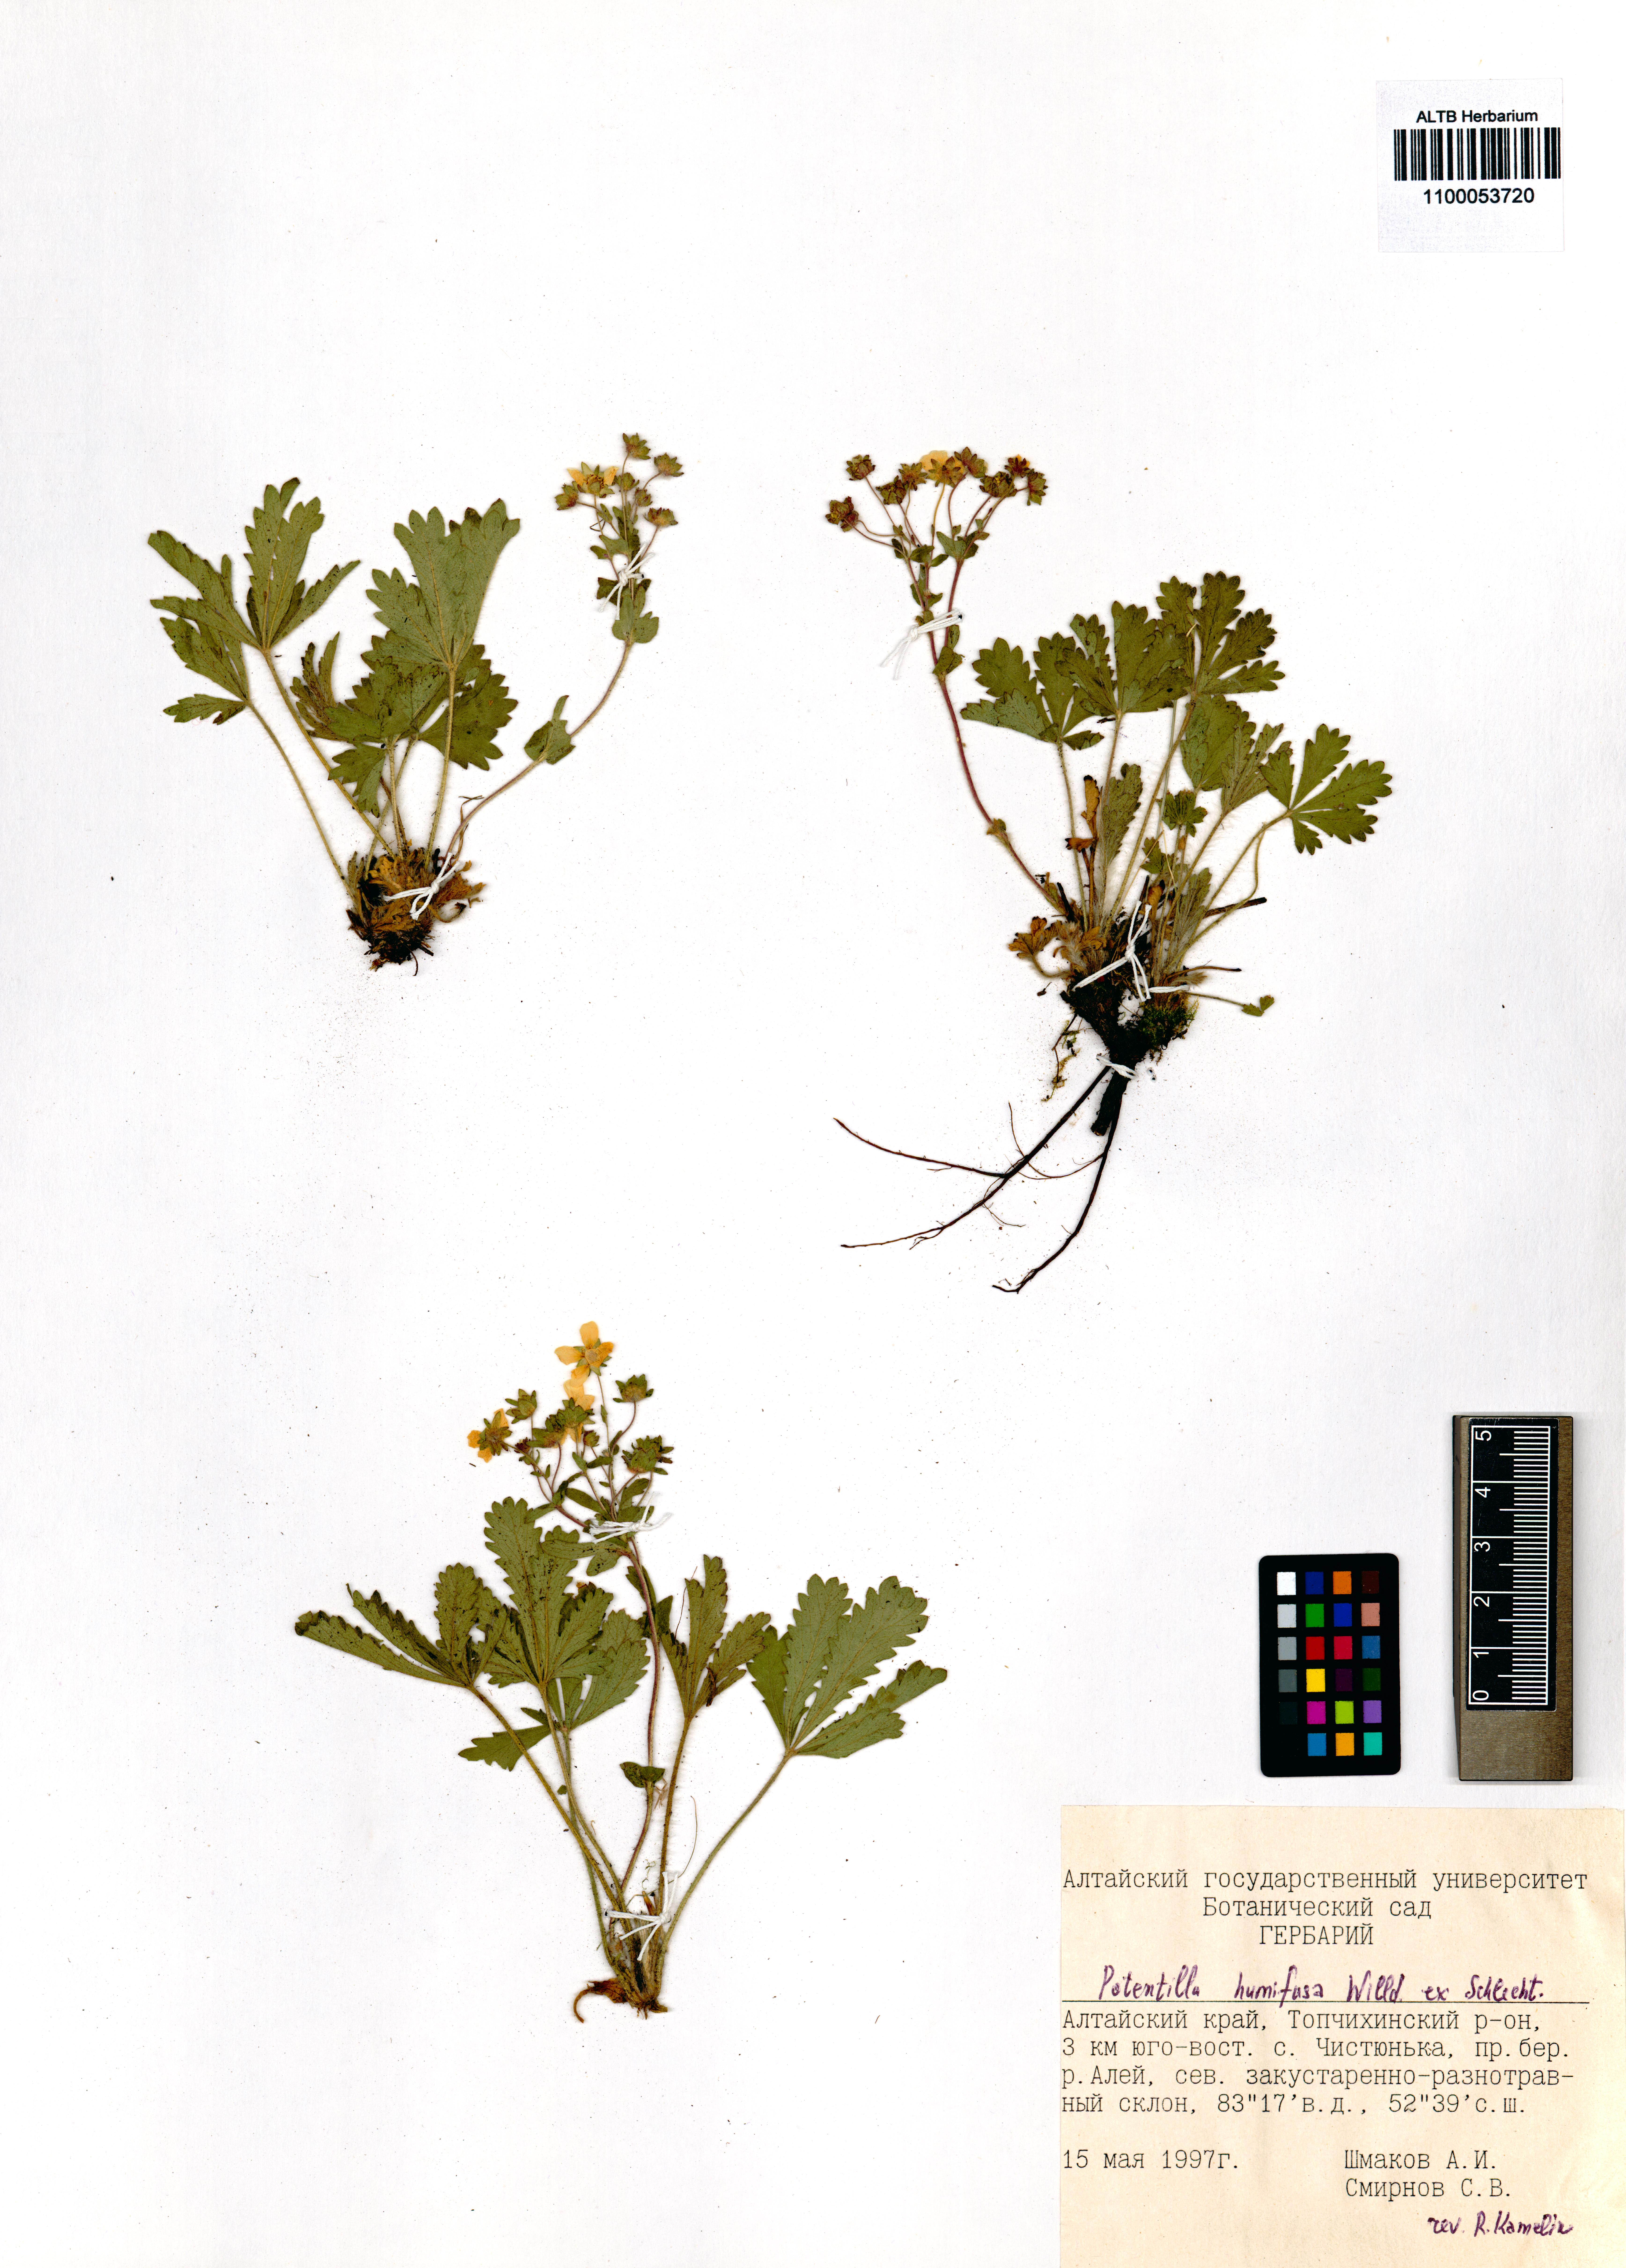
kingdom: Plantae
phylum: Tracheophyta
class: Magnoliopsida
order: Rosales
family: Rosaceae
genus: Potentilla
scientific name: Potentilla humifusa
